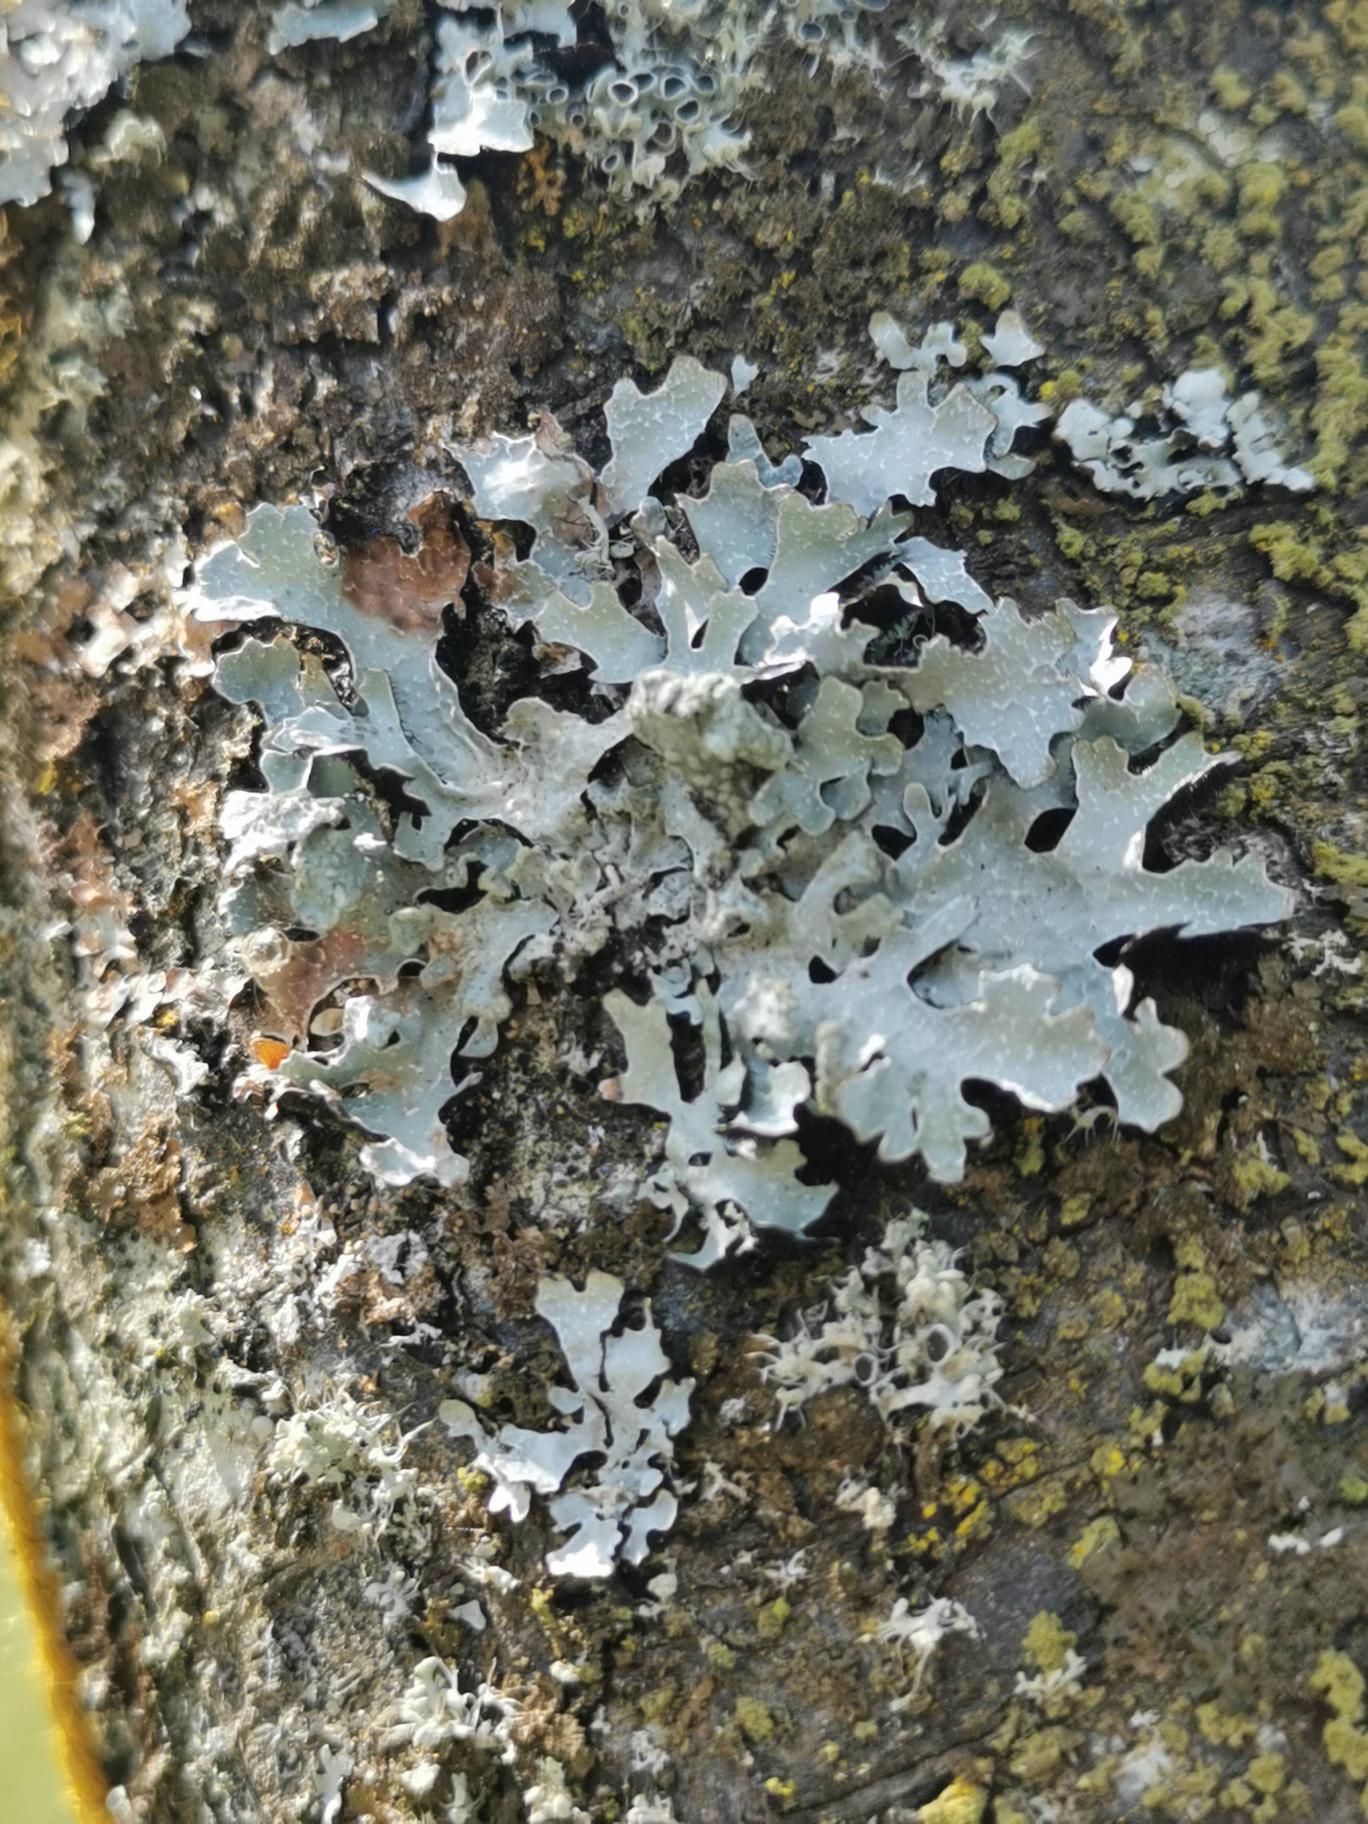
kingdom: Fungi
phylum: Ascomycota
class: Lecanoromycetes
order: Lecanorales
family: Parmeliaceae
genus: Parmelia
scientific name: Parmelia sulcata
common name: Rynket skållav
